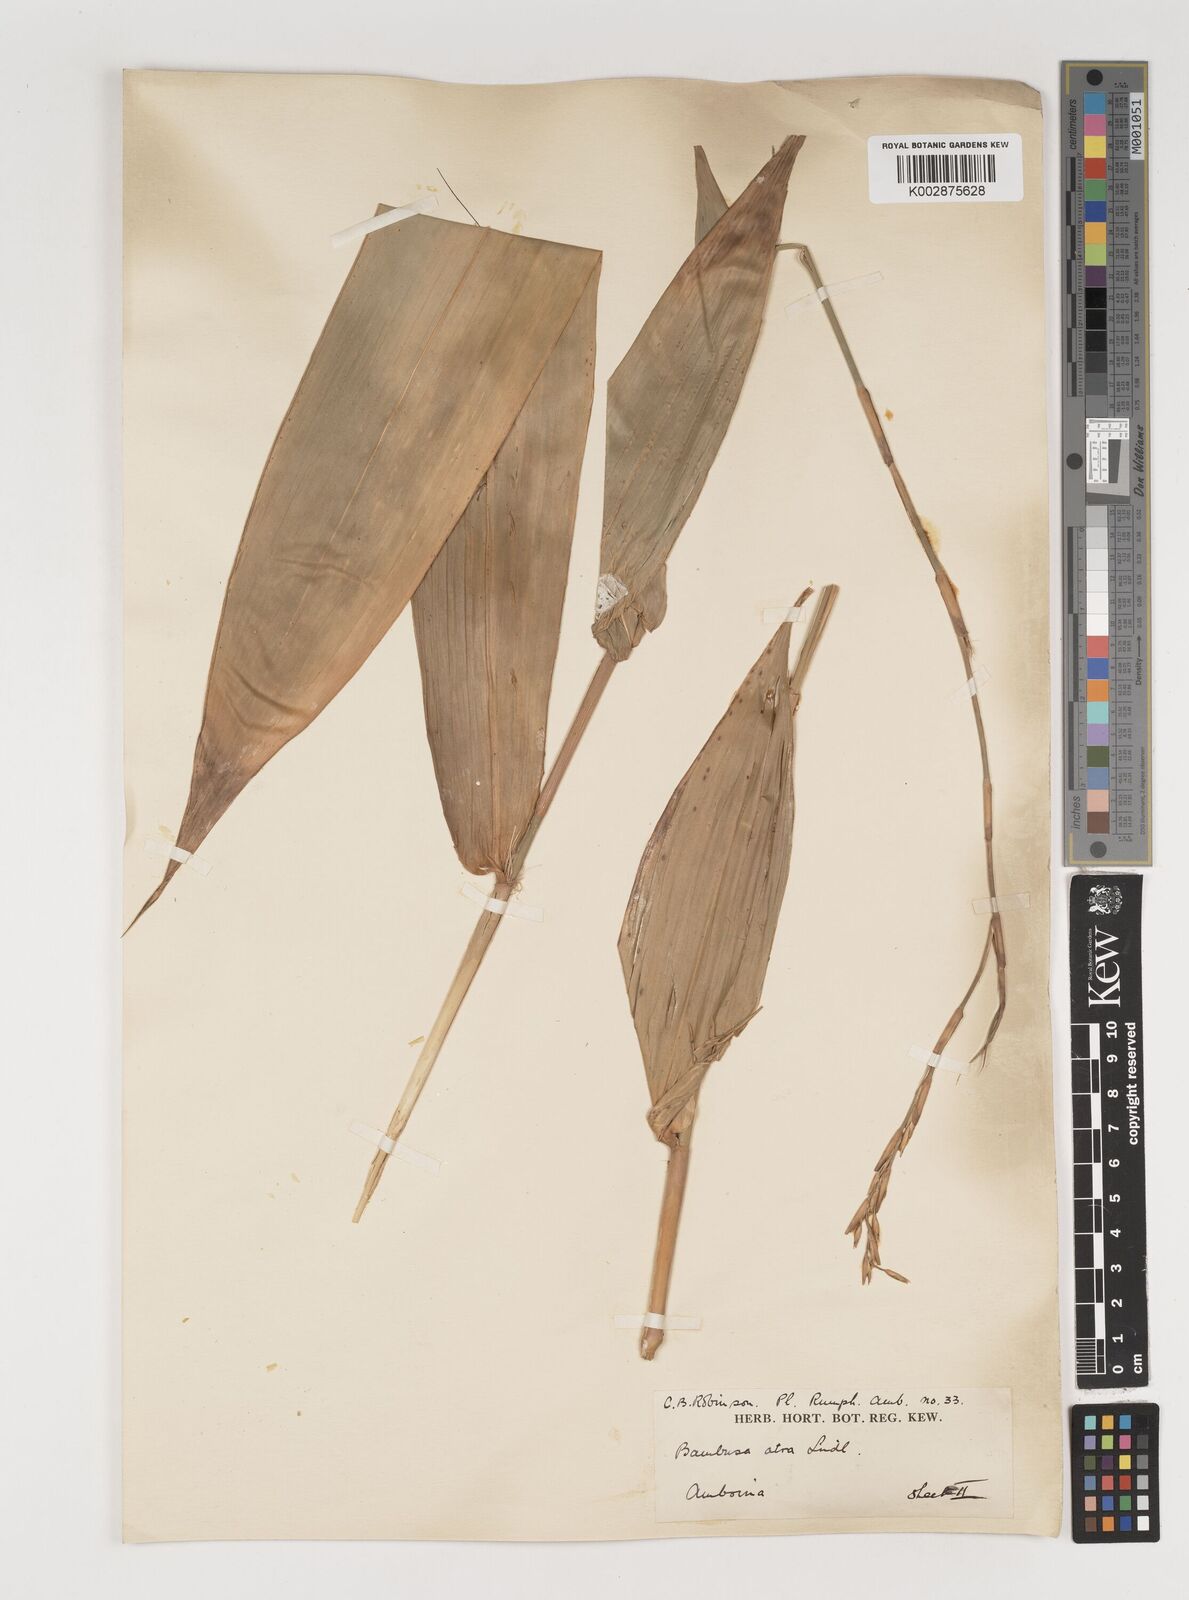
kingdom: Plantae
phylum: Tracheophyta
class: Liliopsida
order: Poales
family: Poaceae
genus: Neololeba
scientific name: Neololeba atra
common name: Cape bamboo
